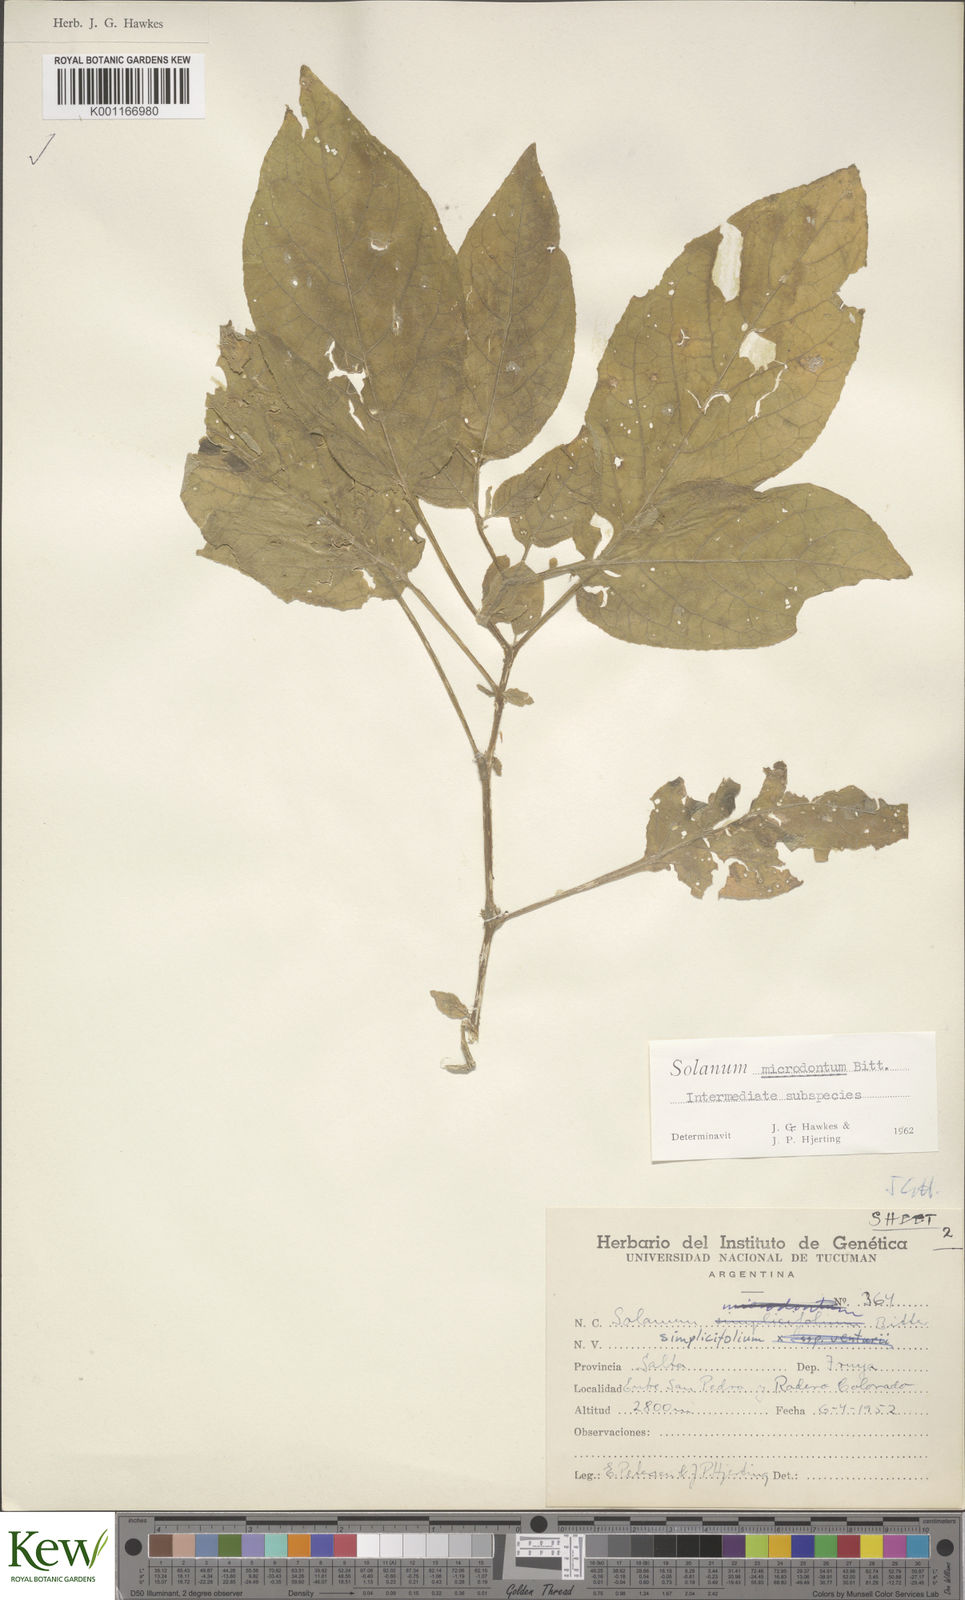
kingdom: Plantae
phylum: Tracheophyta
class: Magnoliopsida
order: Solanales
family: Solanaceae
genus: Solanum
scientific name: Solanum microdontum
